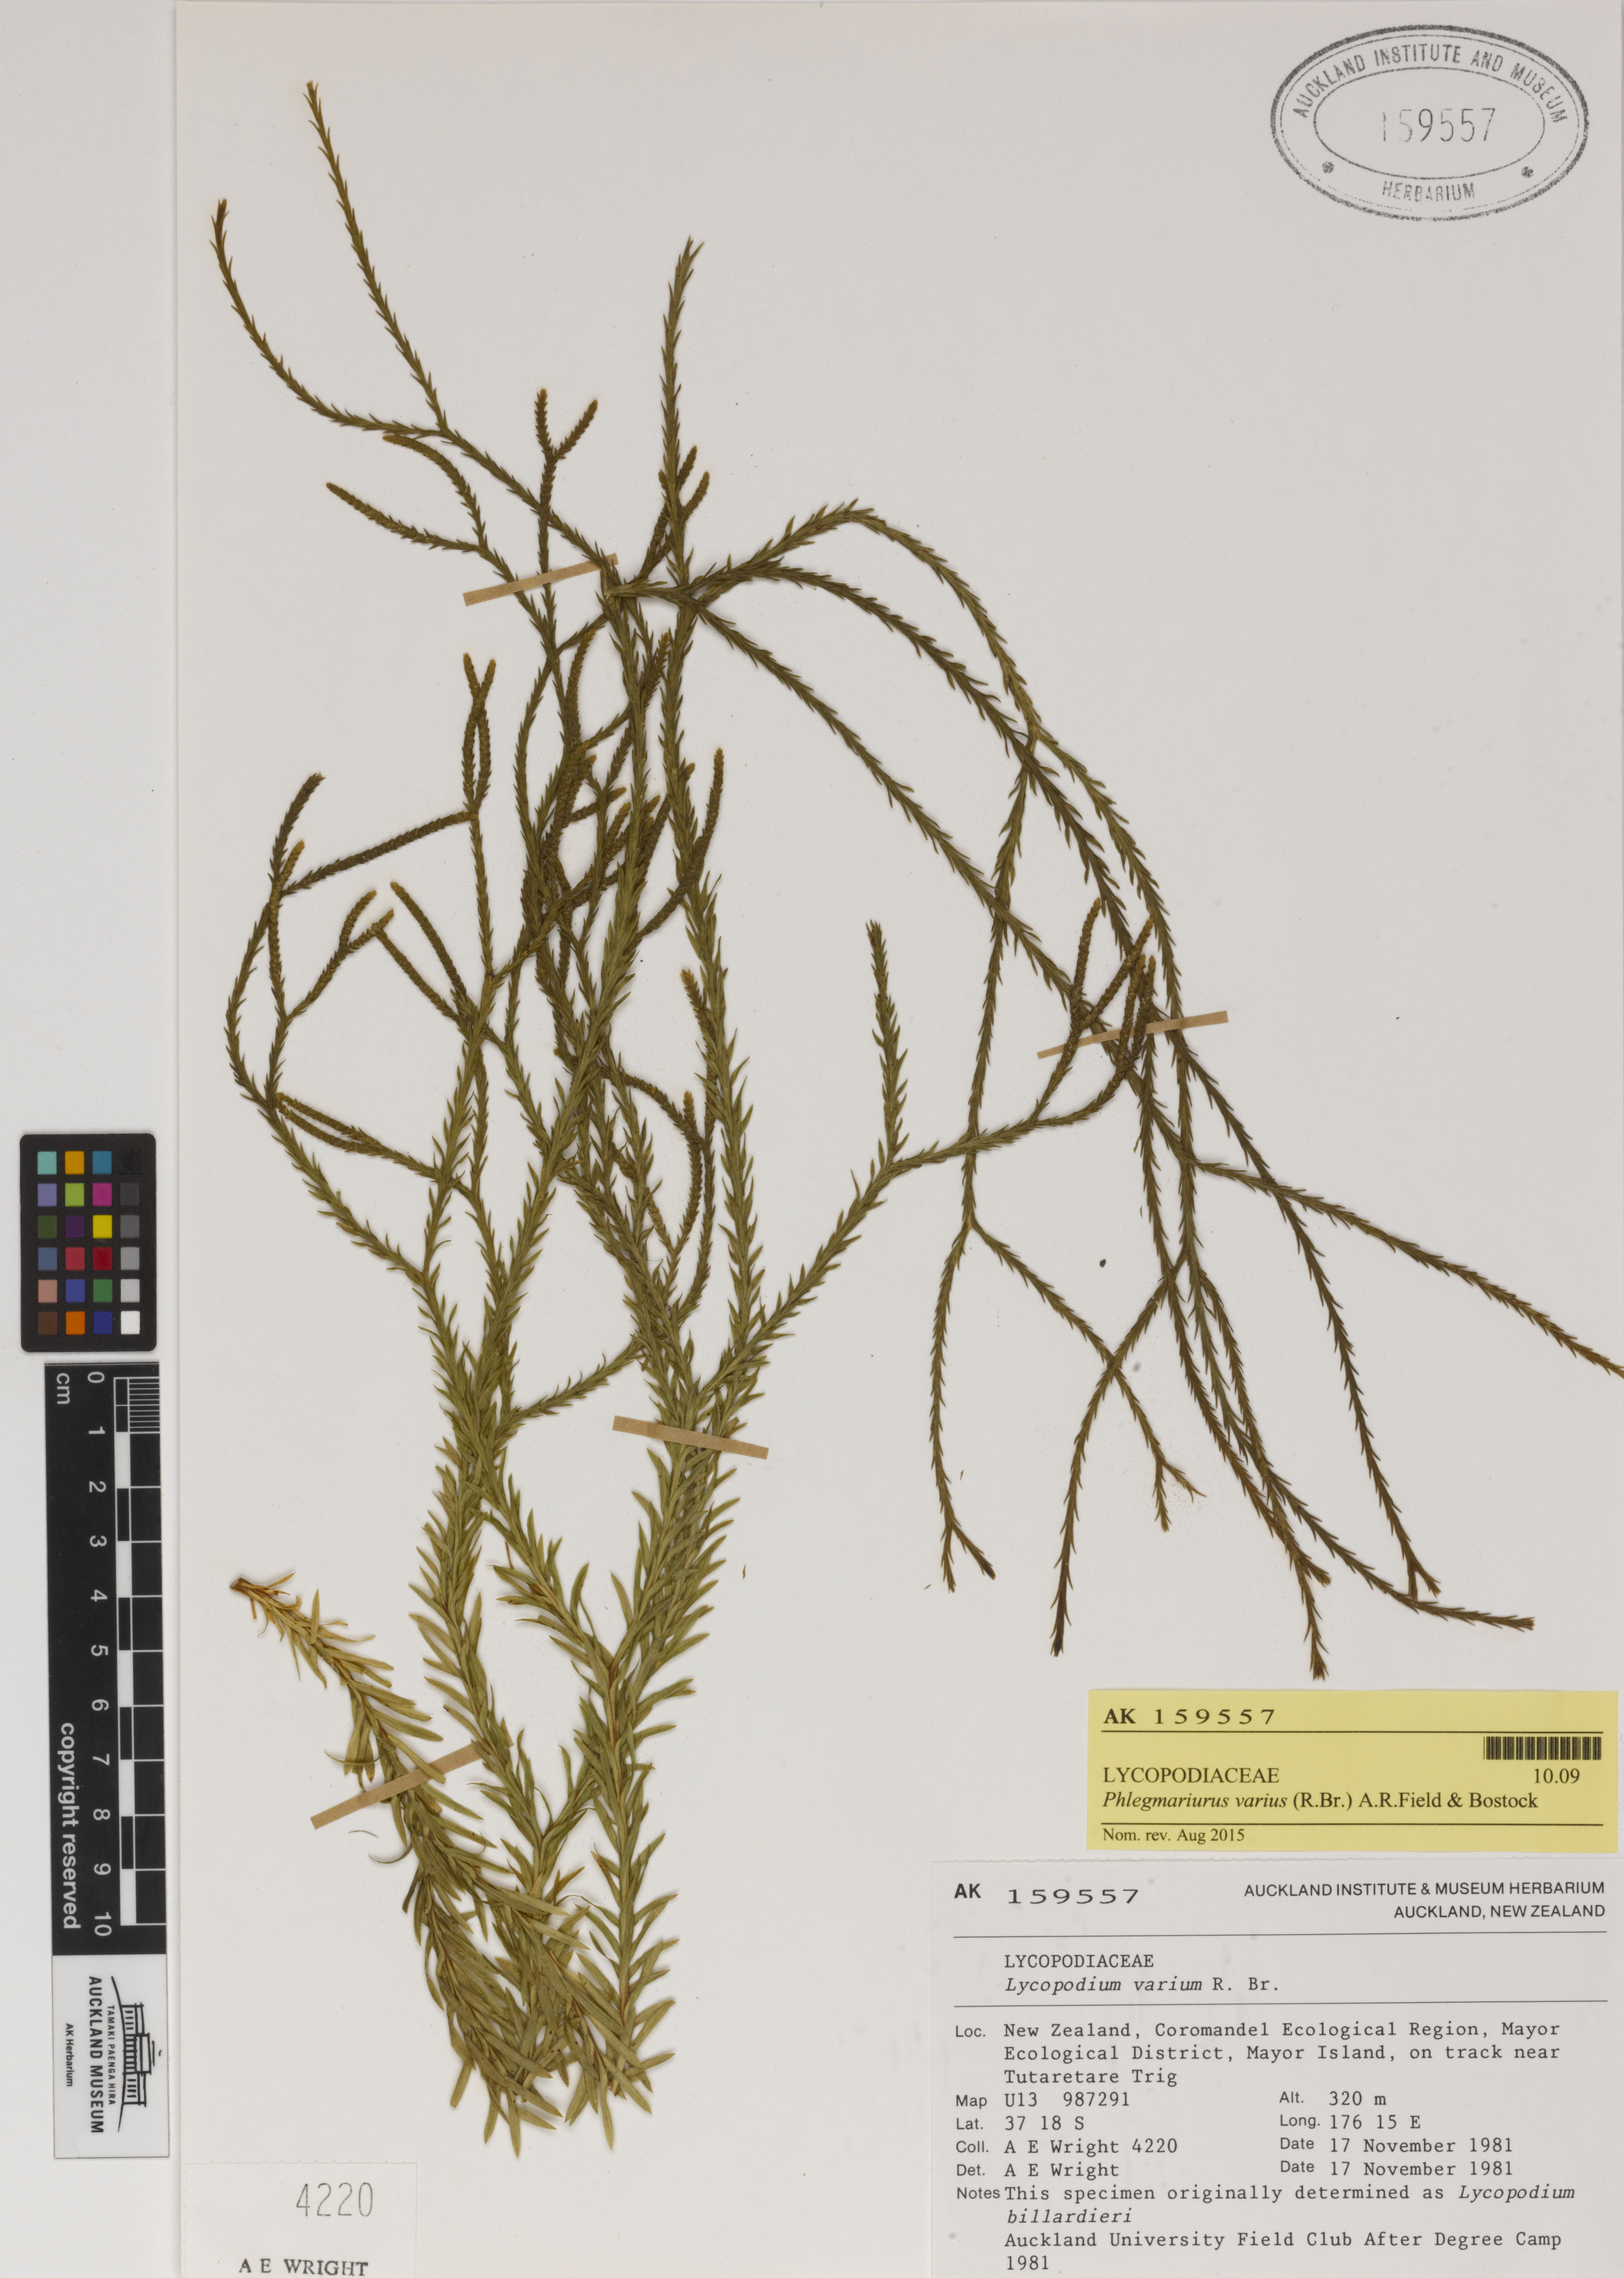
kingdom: Plantae
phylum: Tracheophyta
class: Lycopodiopsida
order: Lycopodiales
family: Lycopodiaceae
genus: Phlegmariurus
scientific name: Phlegmariurus billardierei
